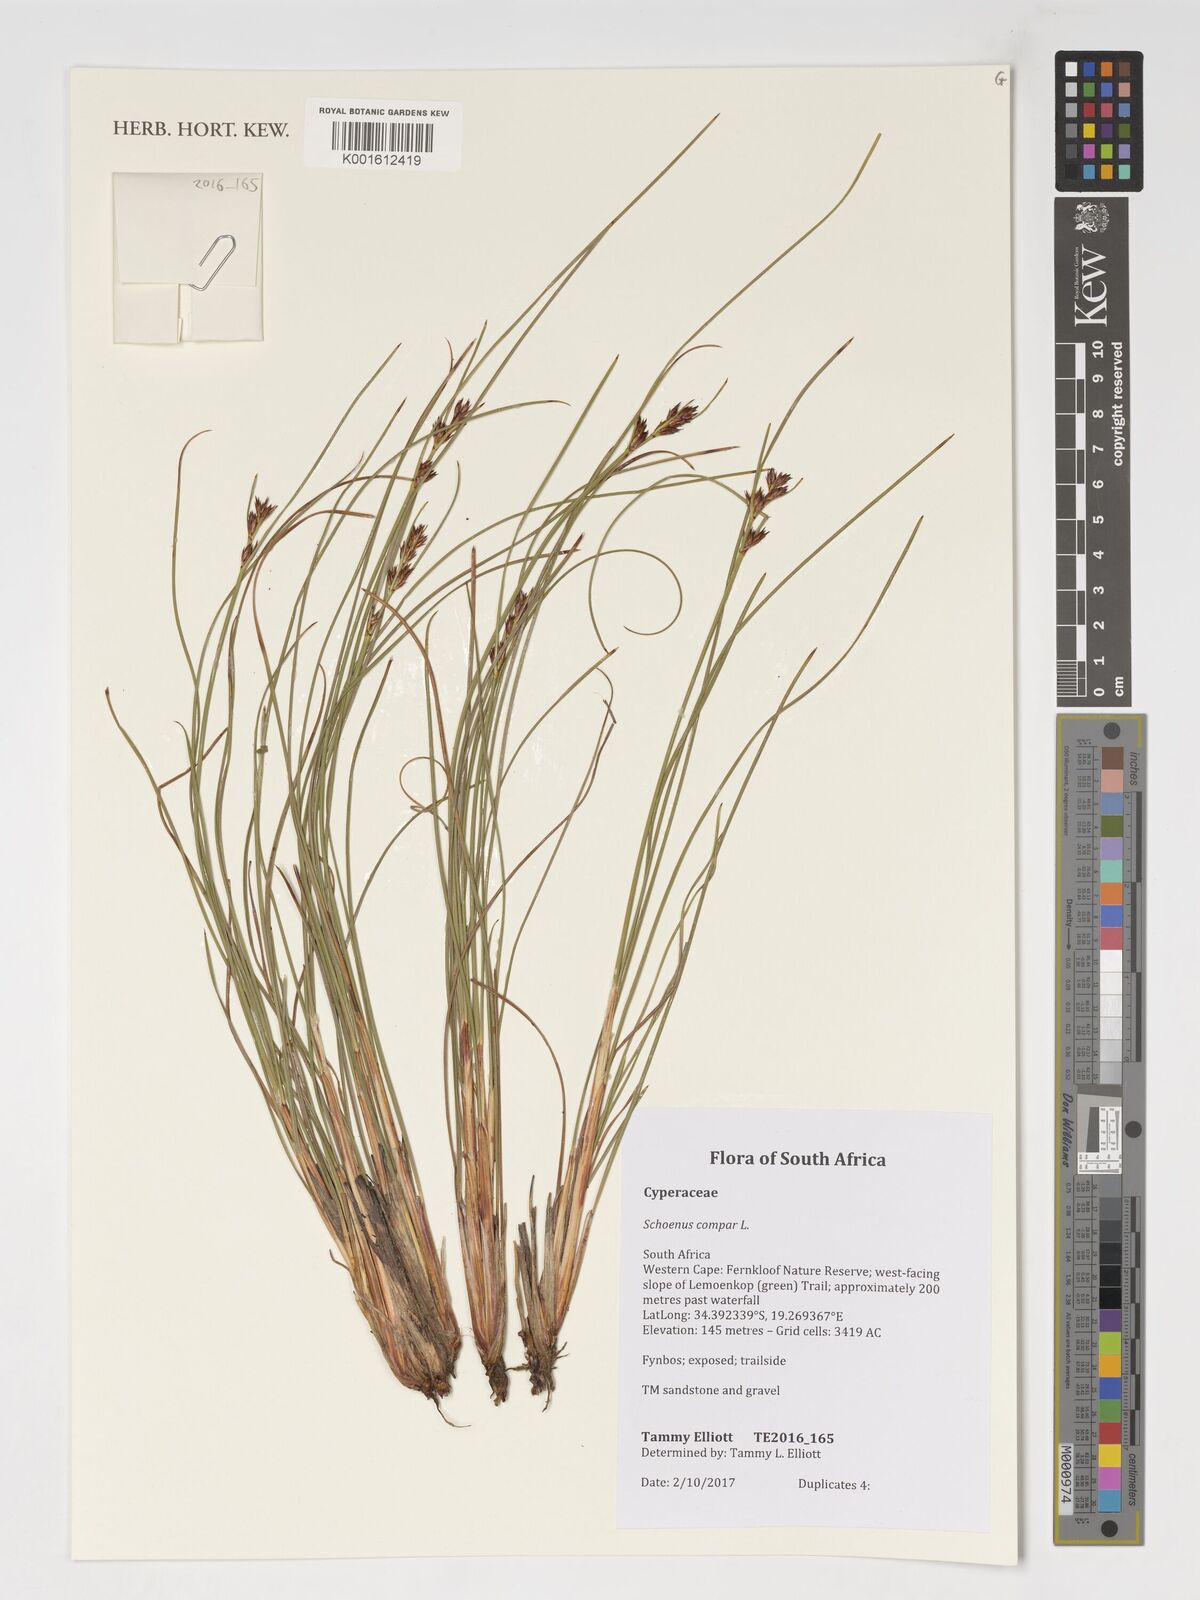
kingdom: Plantae
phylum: Tracheophyta
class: Liliopsida
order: Poales
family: Cyperaceae
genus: Schoenus
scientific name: Schoenus compar
